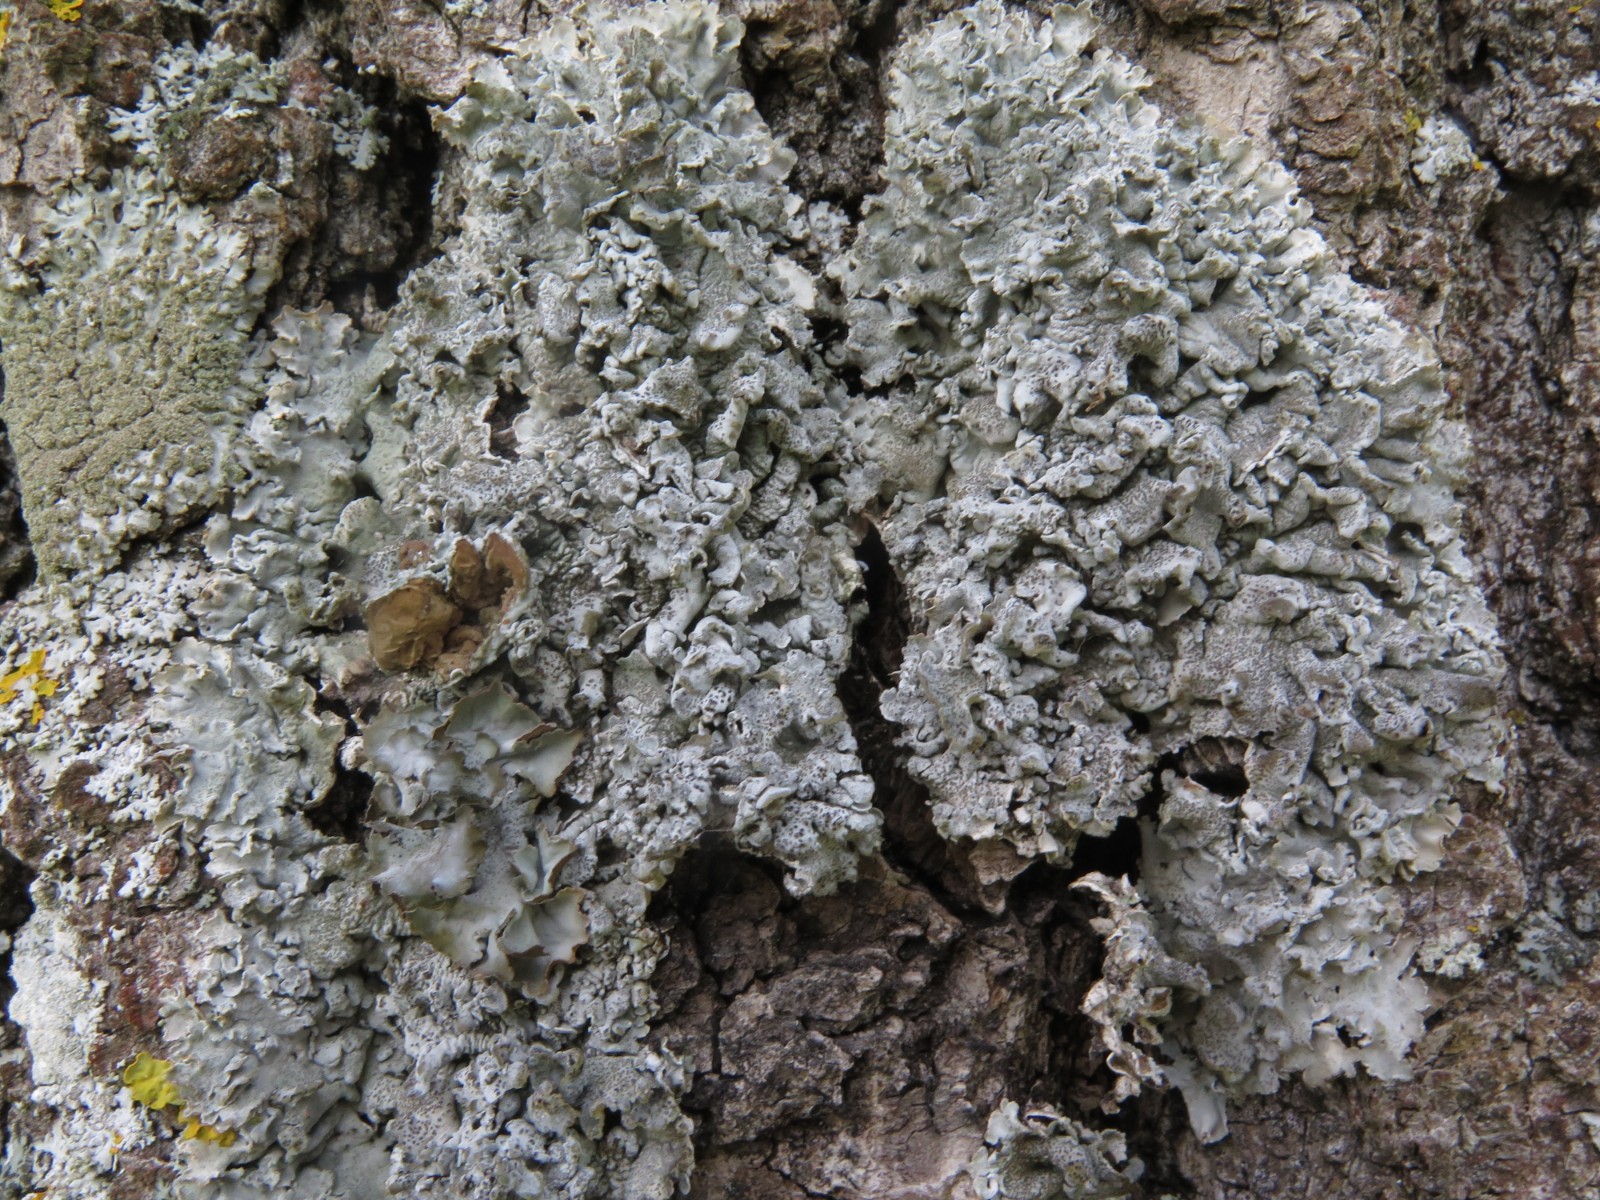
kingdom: Fungi
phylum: Ascomycota
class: Lecanoromycetes
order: Lecanorales
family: Parmeliaceae
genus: Pleurosticta
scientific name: Pleurosticta acetabulum
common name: stor skållav
